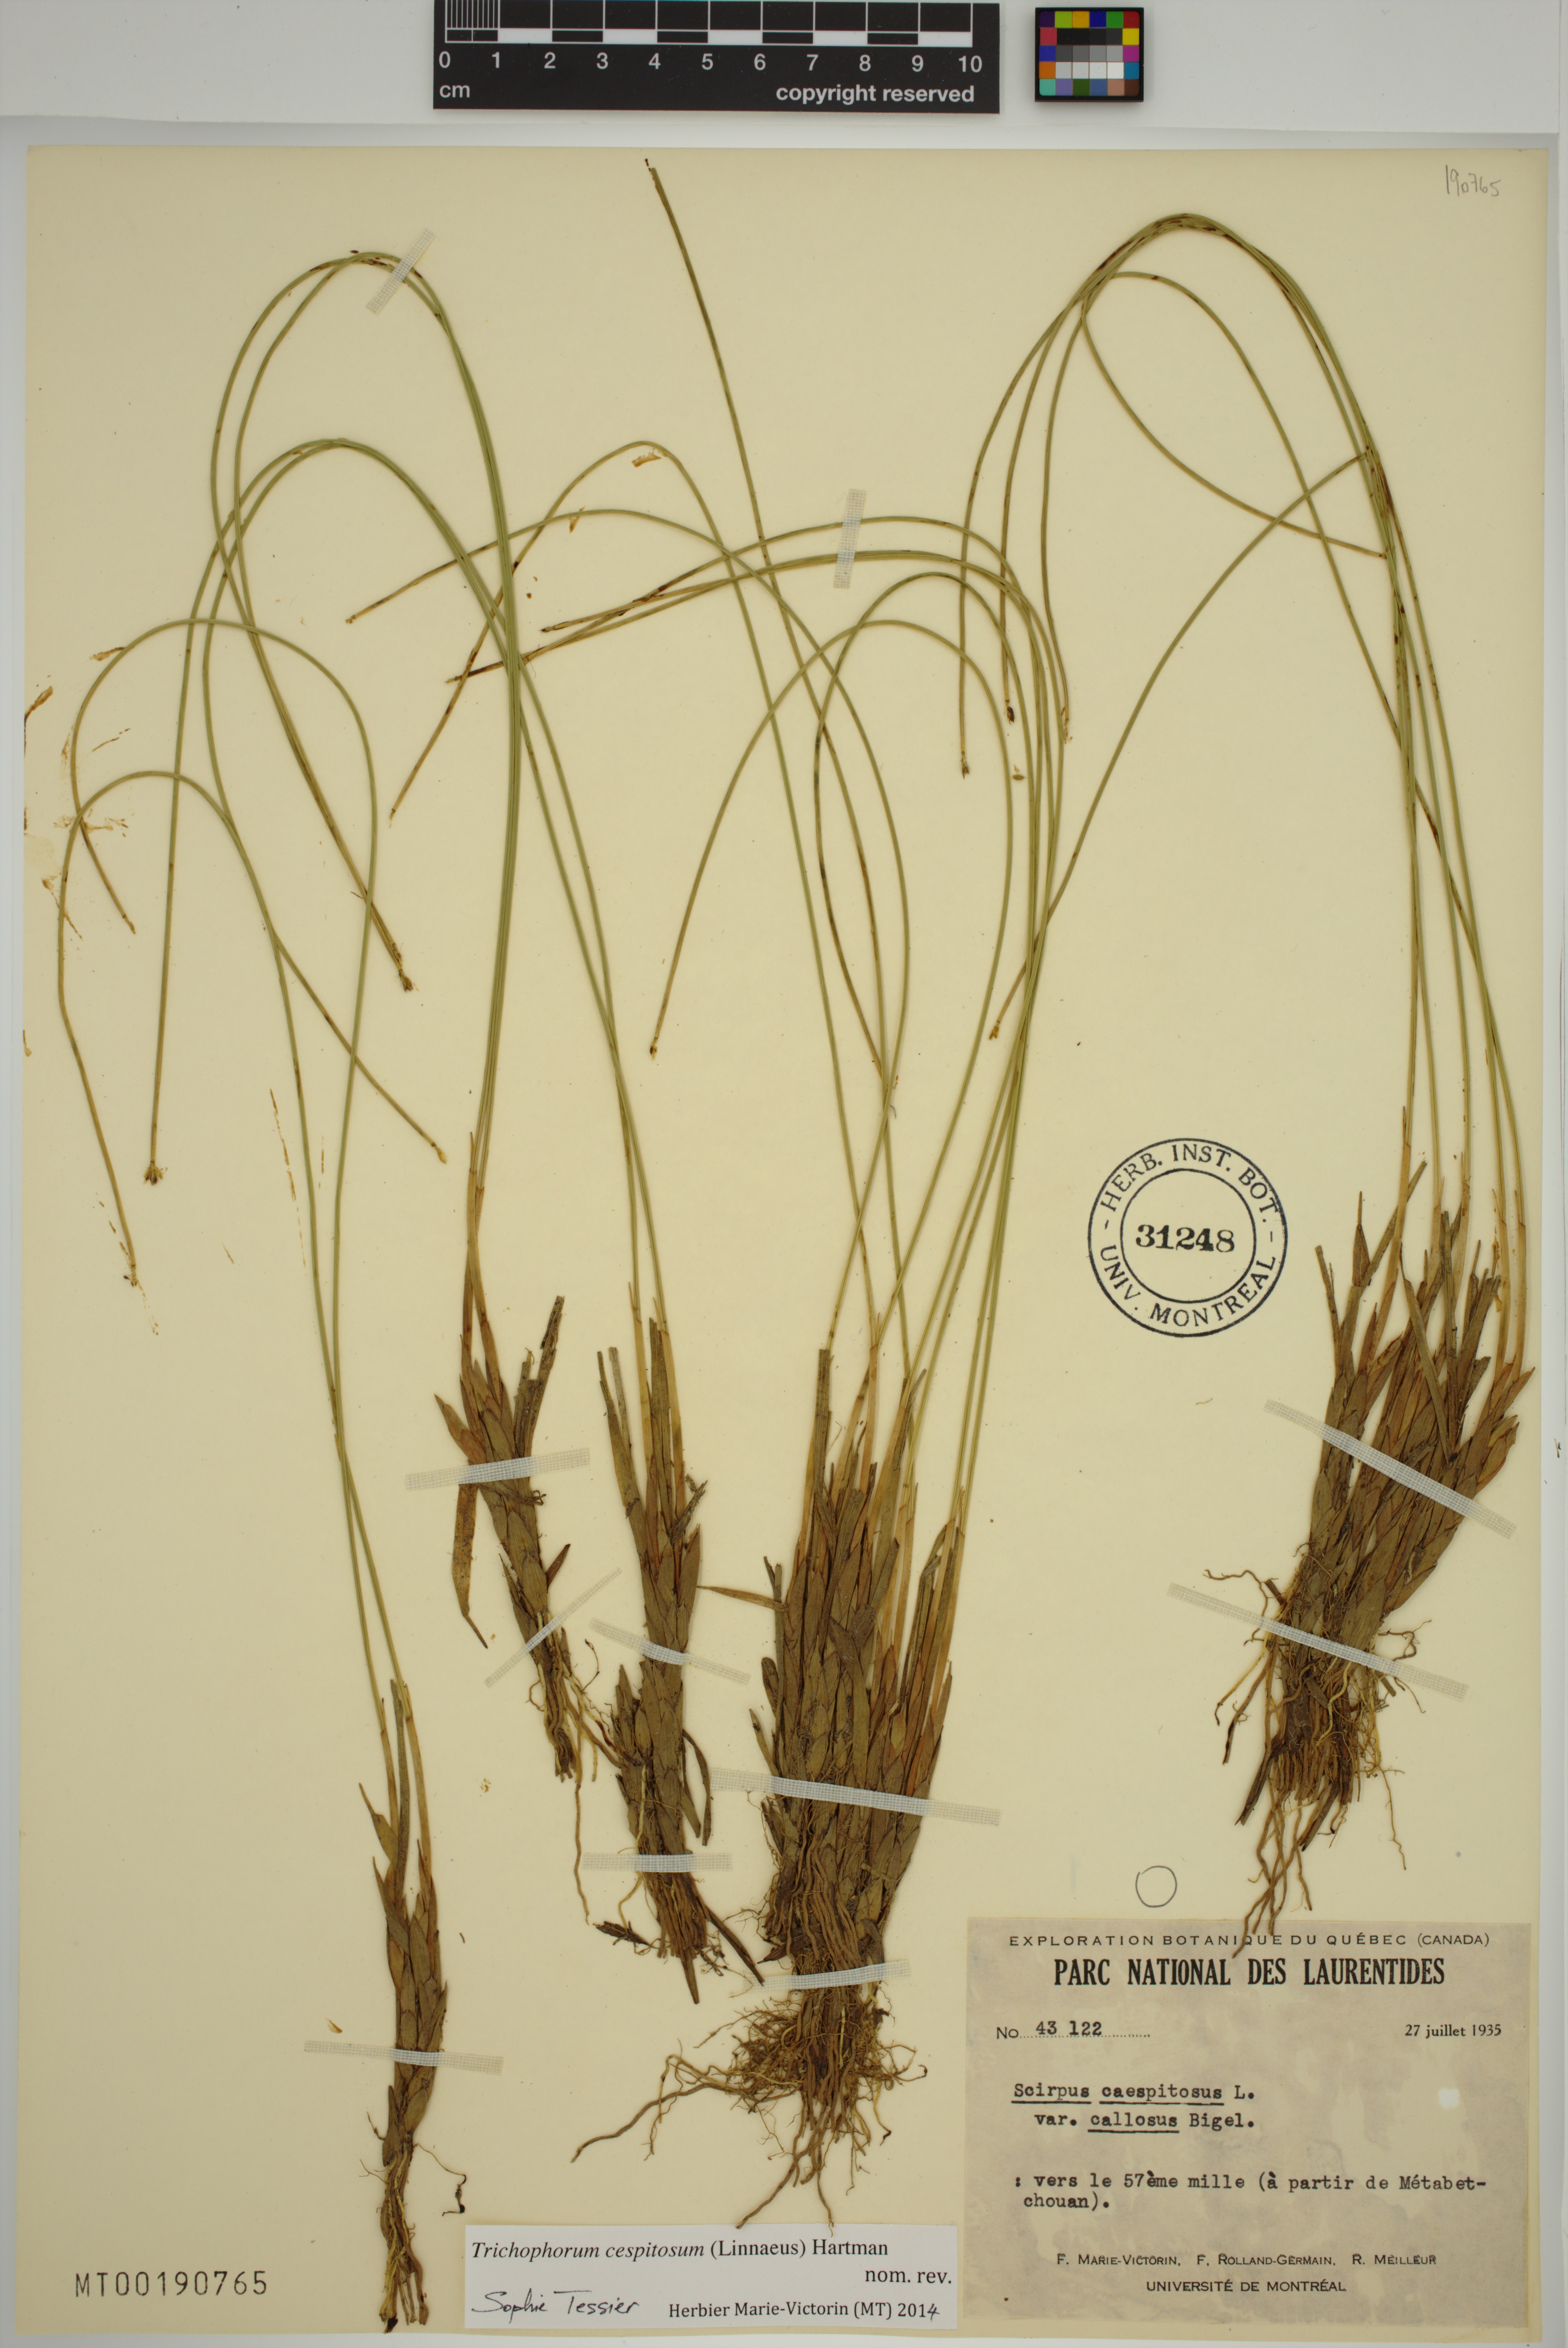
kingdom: Plantae
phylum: Tracheophyta
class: Liliopsida
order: Poales
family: Cyperaceae
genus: Trichophorum
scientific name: Trichophorum cespitosum
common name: Cespitose bulrush
